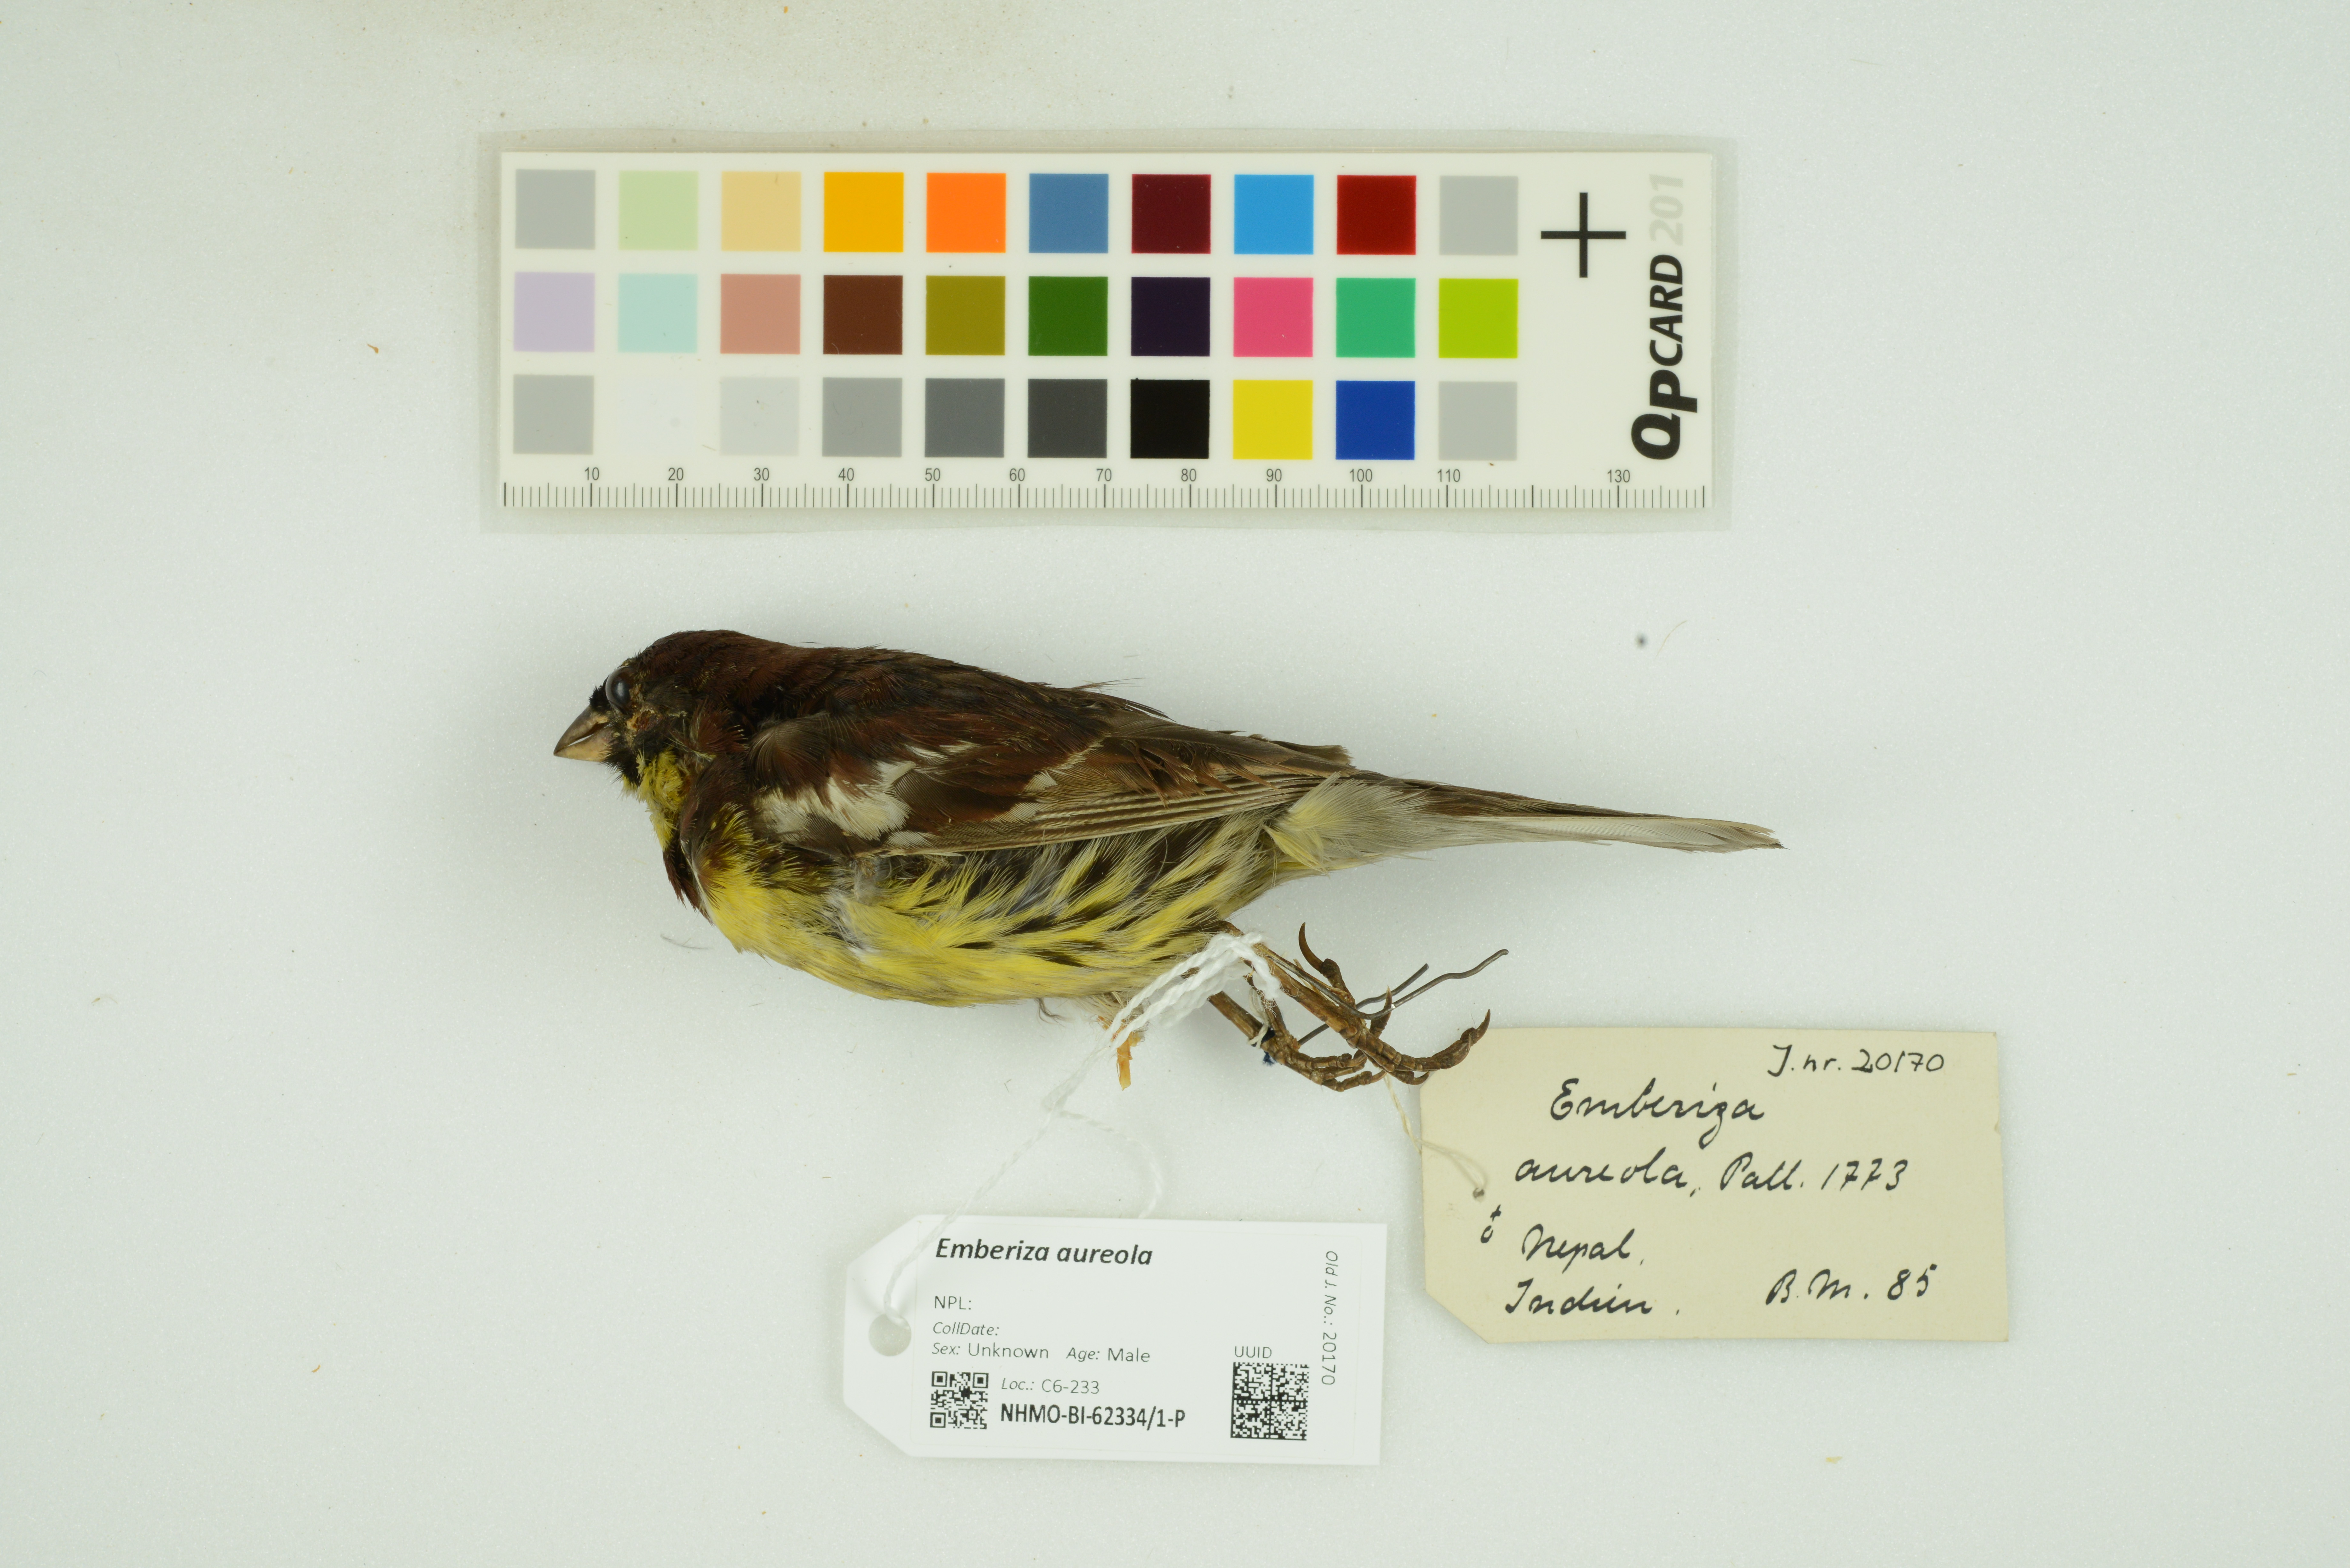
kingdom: Animalia
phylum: Chordata
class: Aves
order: Passeriformes
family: Emberizidae
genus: Emberiza
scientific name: Emberiza aureola
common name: Yellow-breasted bunting
